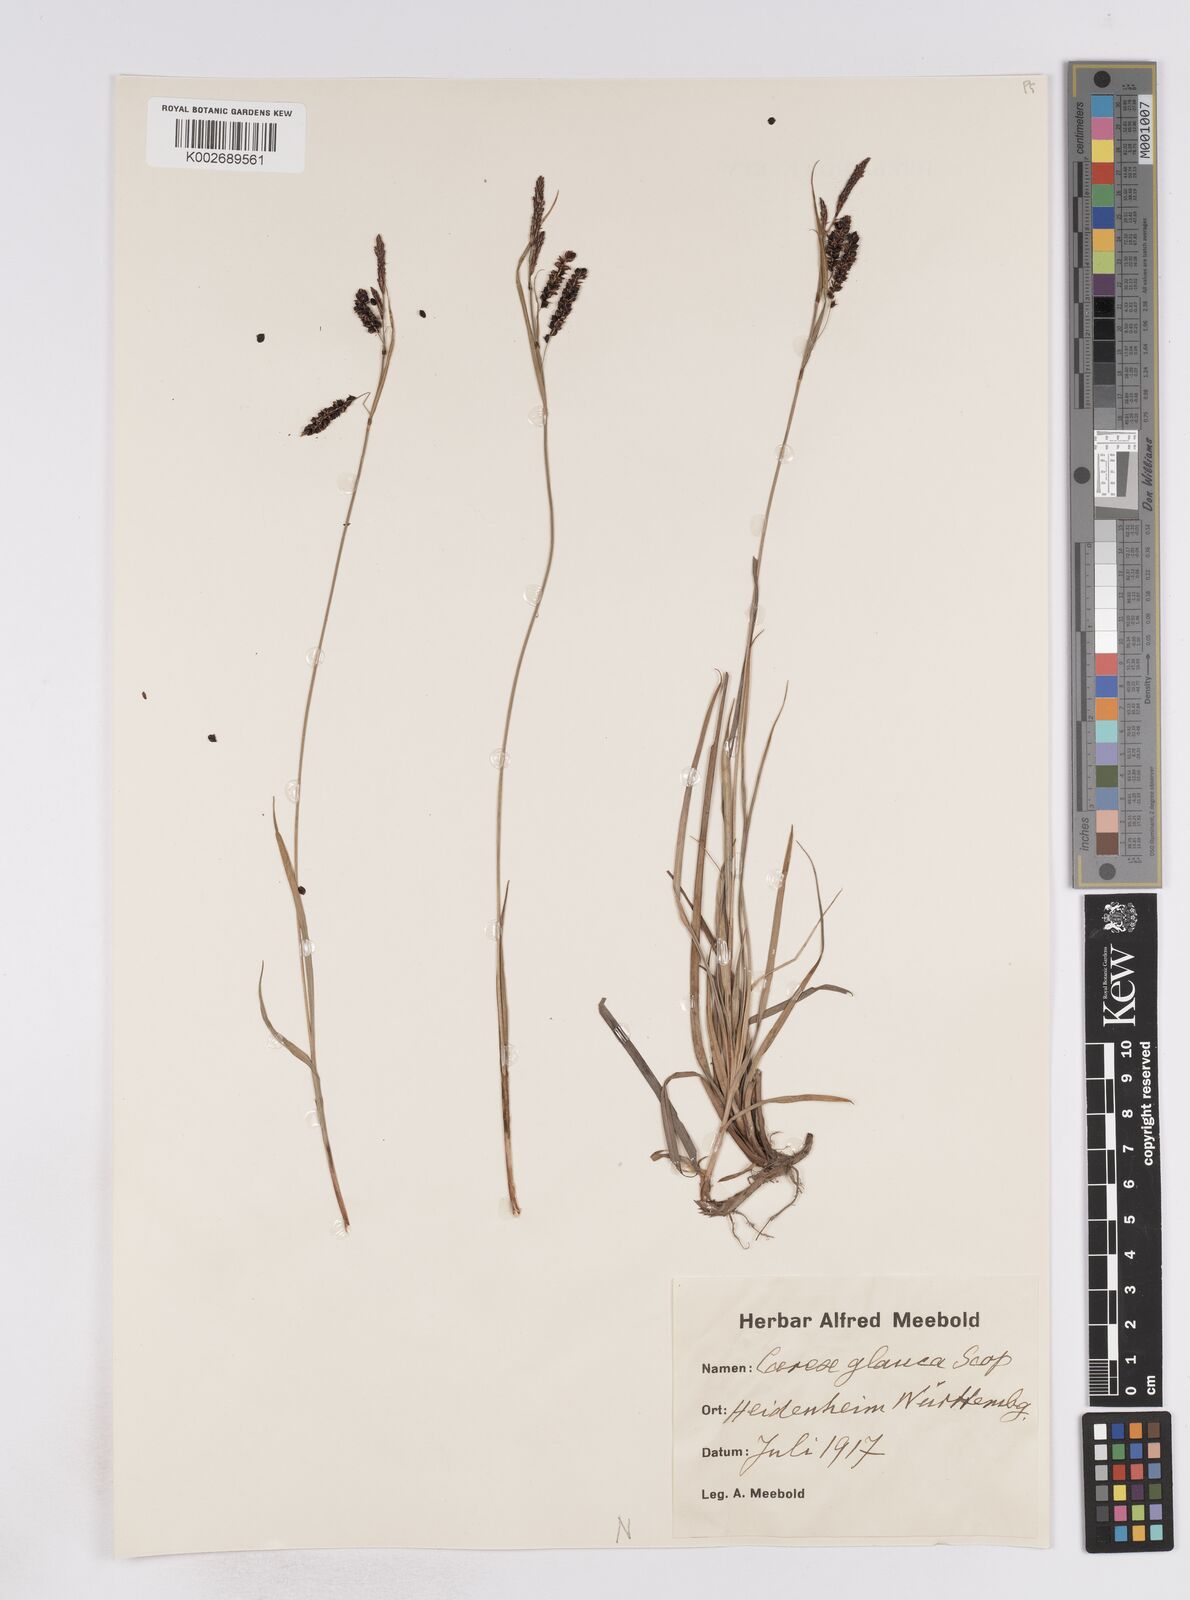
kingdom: Plantae
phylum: Tracheophyta
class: Liliopsida
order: Poales
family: Cyperaceae
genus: Carex
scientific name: Carex flacca
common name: Glaucous sedge
